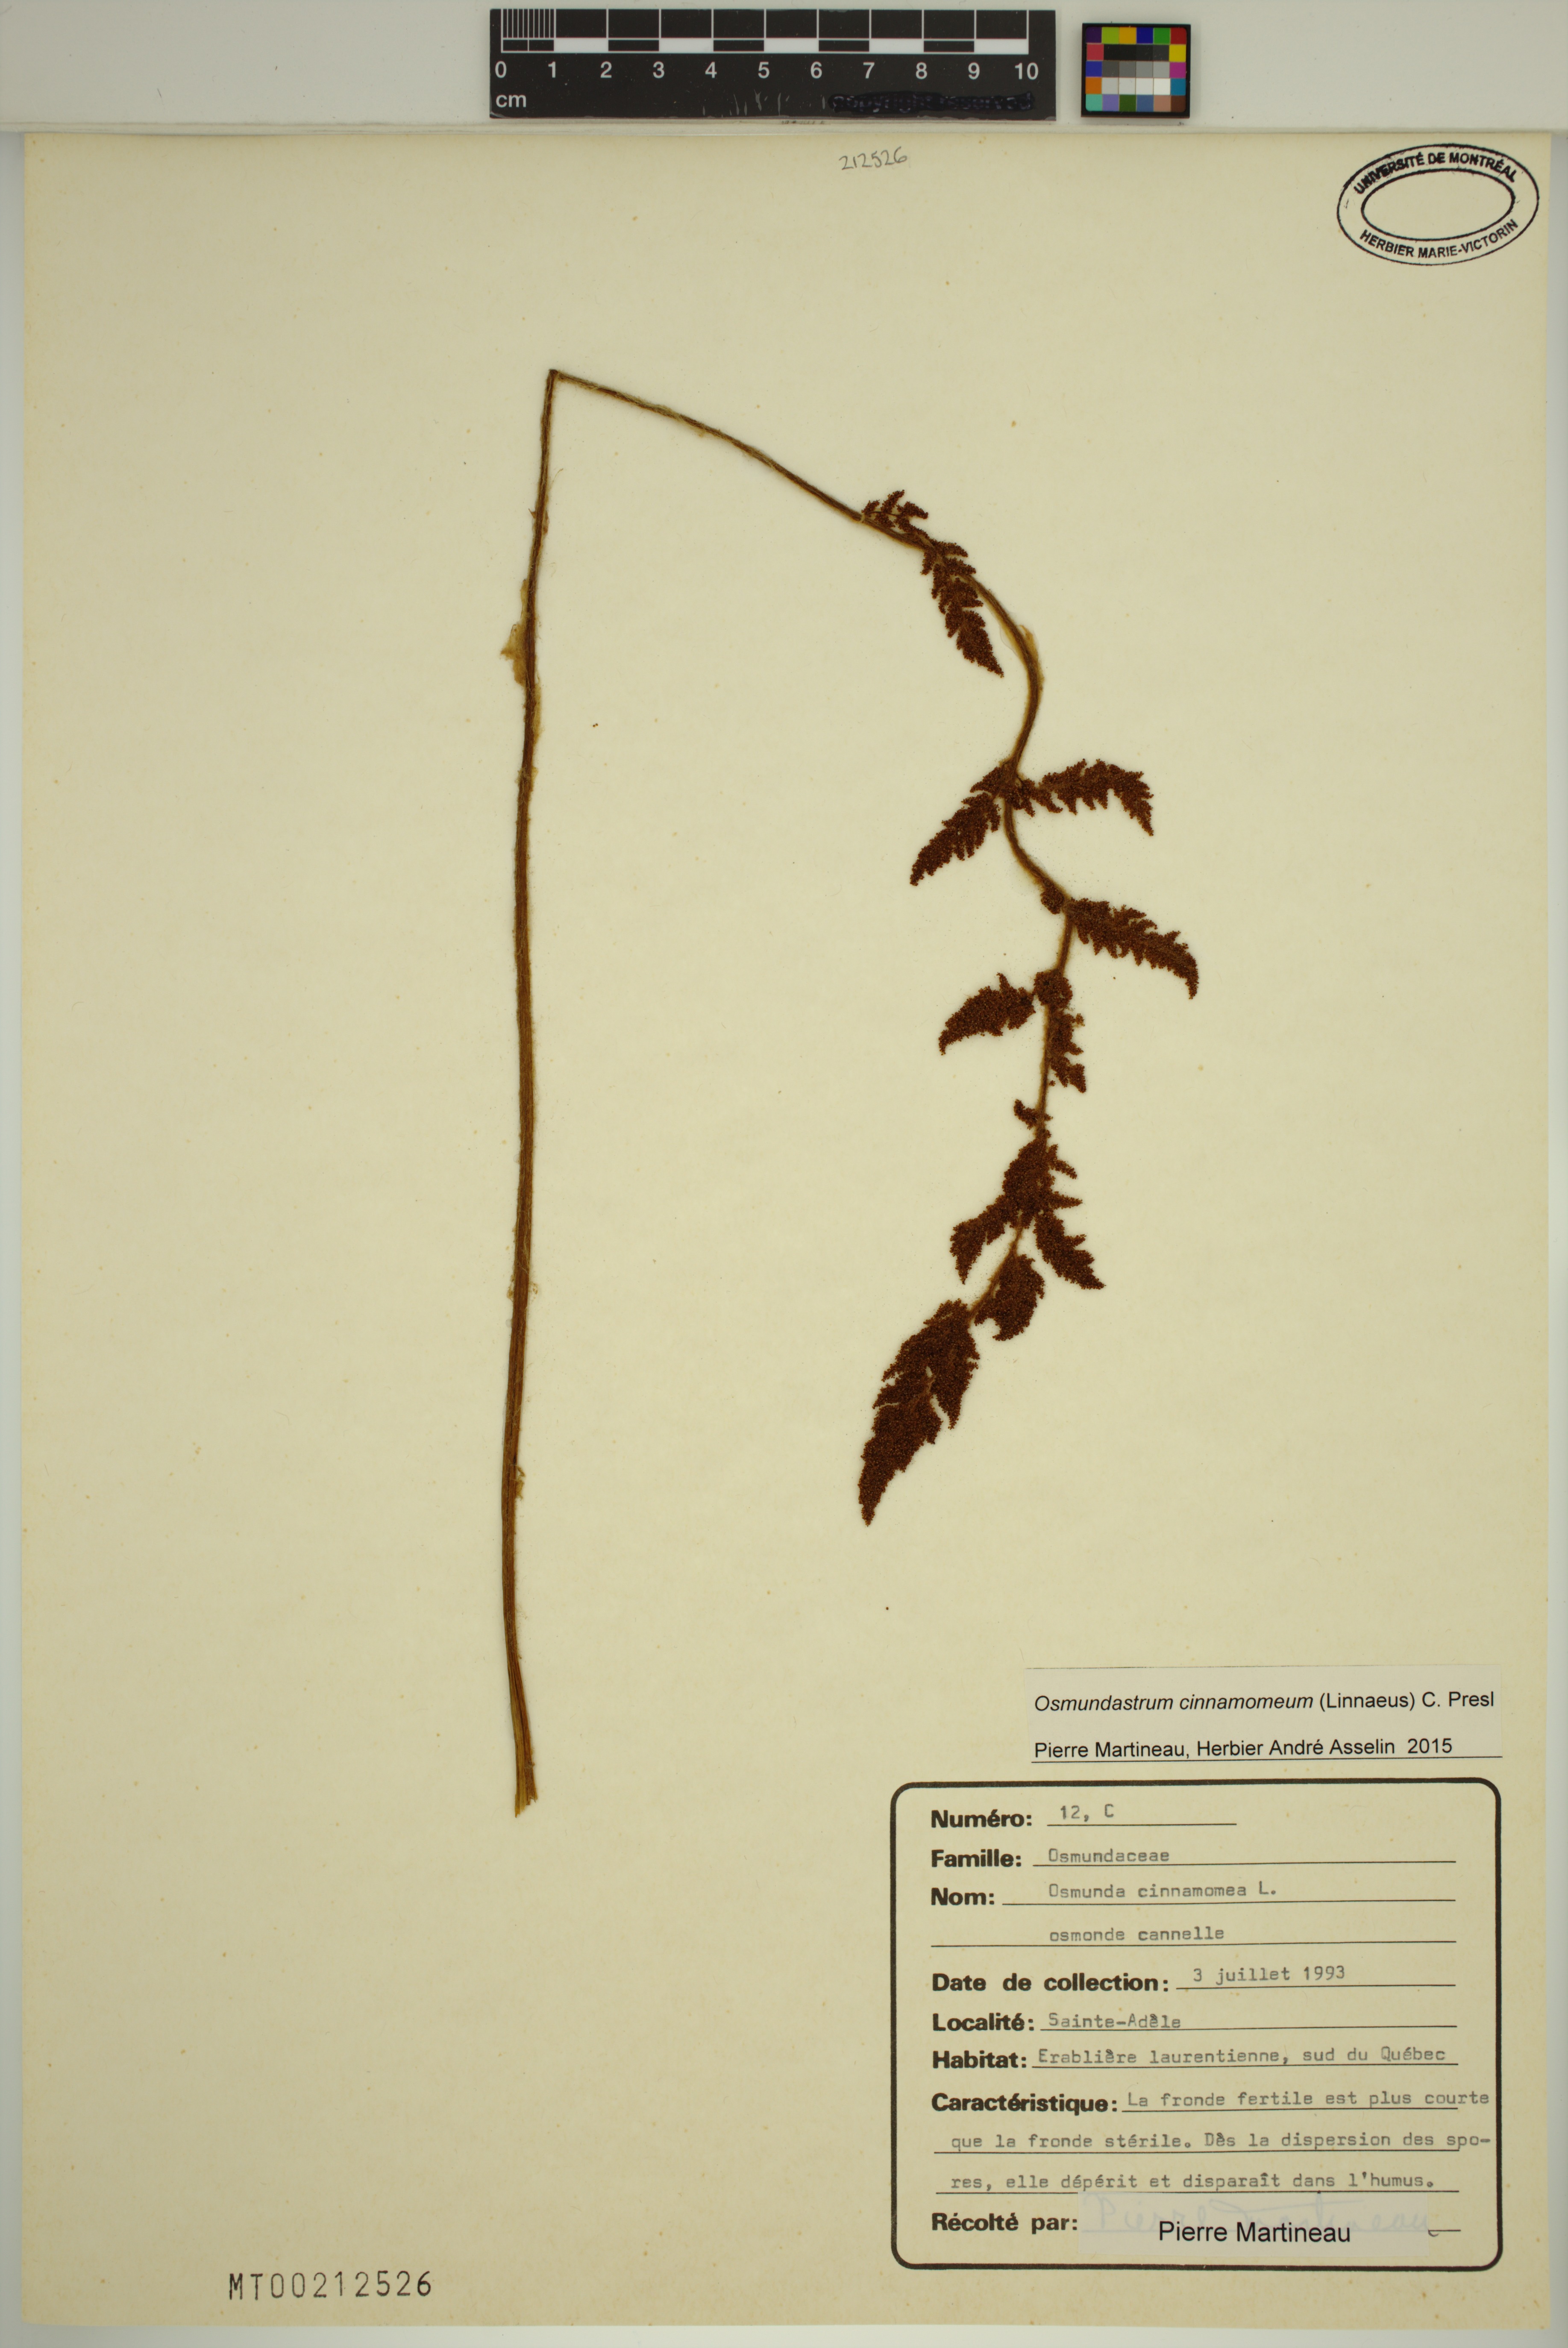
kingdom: Plantae
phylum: Tracheophyta
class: Polypodiopsida
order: Osmundales
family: Osmundaceae
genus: Osmundastrum
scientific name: Osmundastrum cinnamomeum
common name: Cinnamon fern
